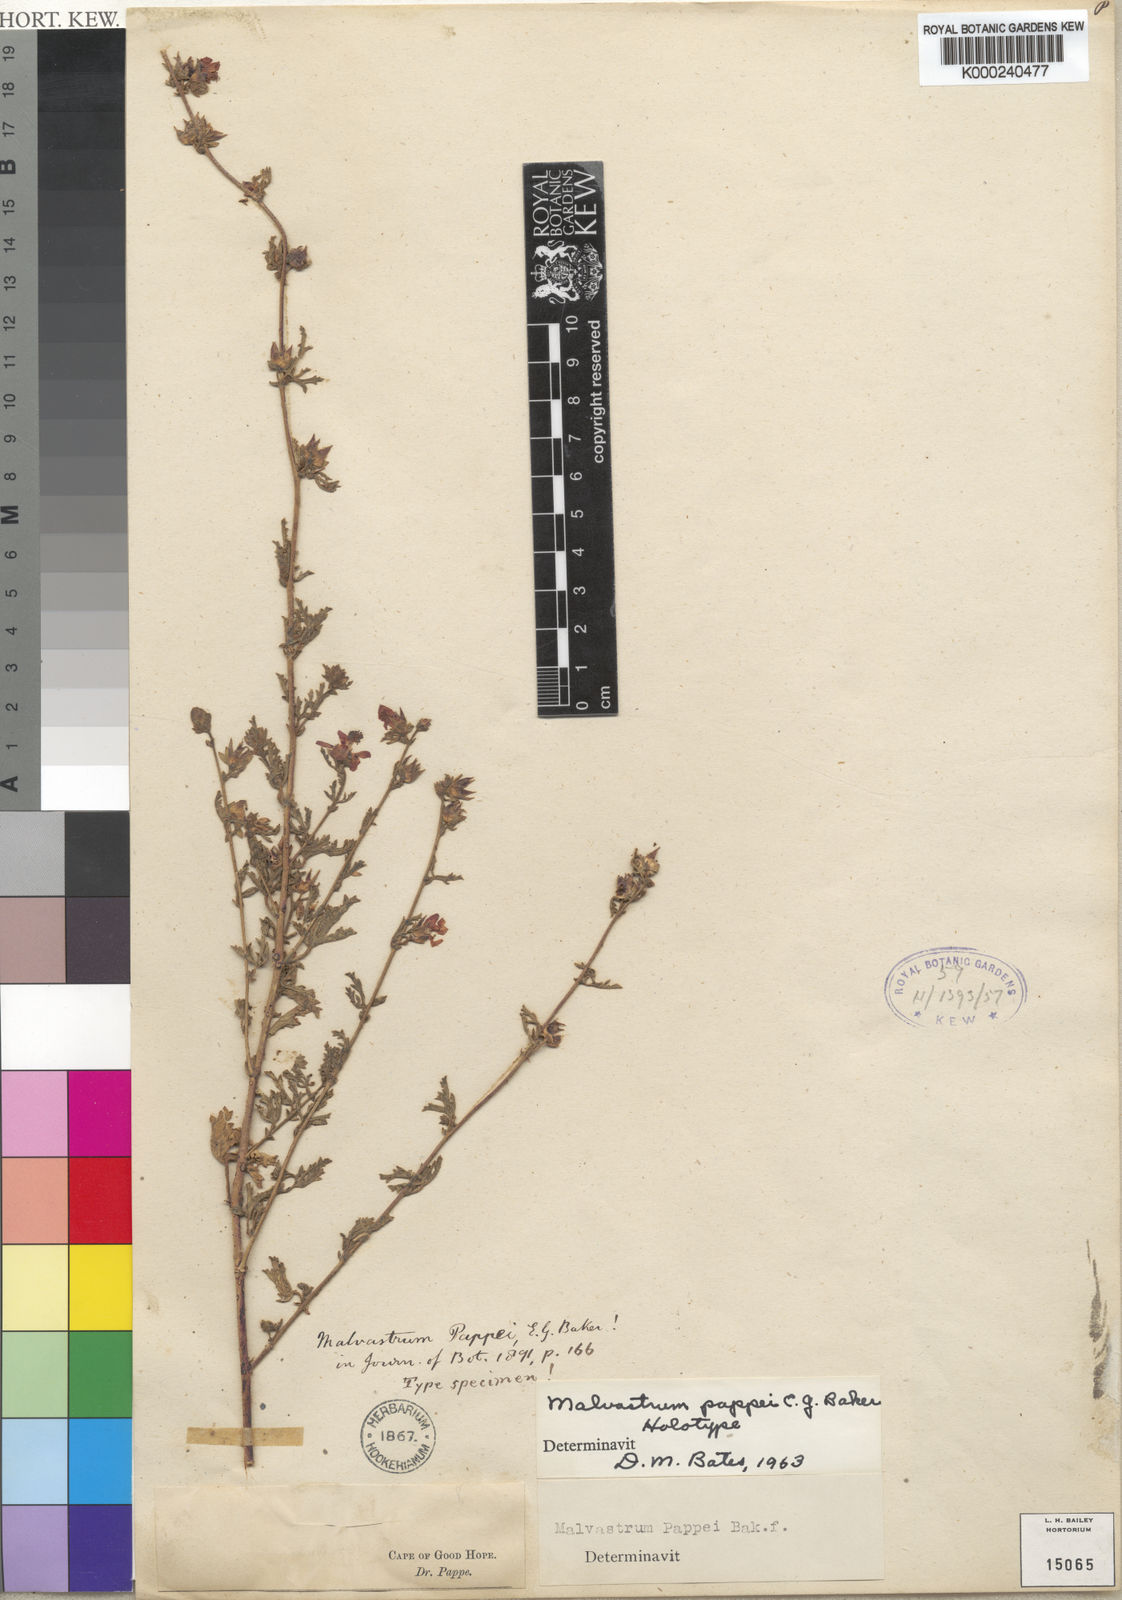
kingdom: Plantae
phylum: Tracheophyta
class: Magnoliopsida
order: Malvales
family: Malvaceae
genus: Anisodontea
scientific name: Anisodontea procumbens
